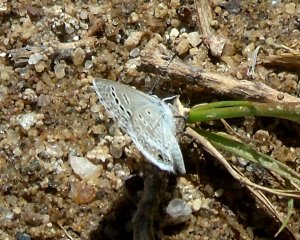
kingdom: Animalia
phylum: Arthropoda
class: Insecta
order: Lepidoptera
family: Lycaenidae
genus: Echinargus
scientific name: Echinargus isola
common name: Reakirt's Blue
